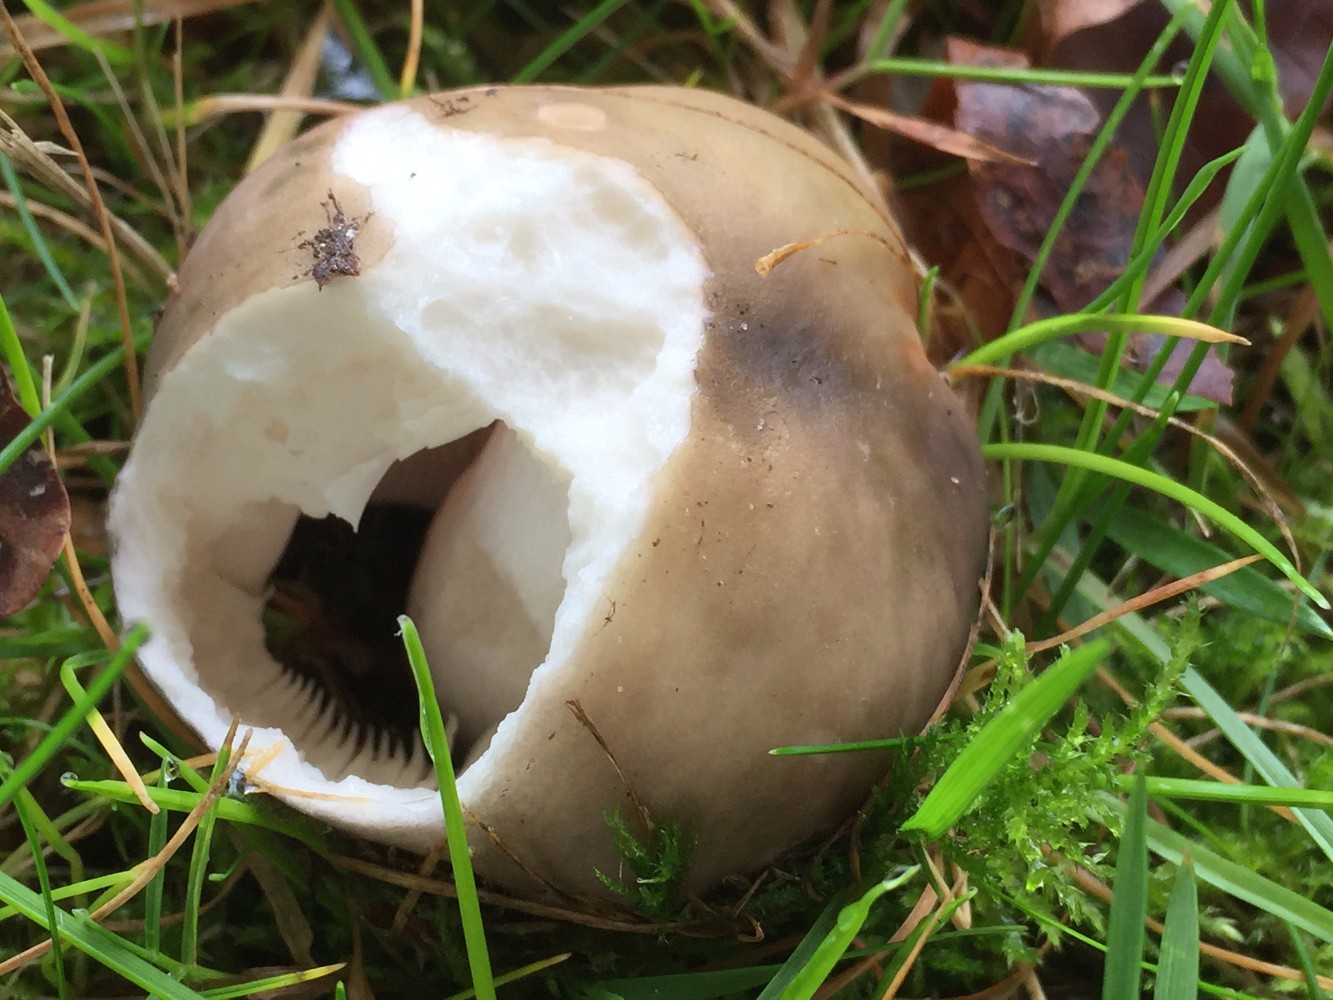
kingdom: Fungi
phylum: Basidiomycota
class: Agaricomycetes
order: Russulales
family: Russulaceae
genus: Russula
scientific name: Russula ionochlora
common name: violetgrøn skørhat
